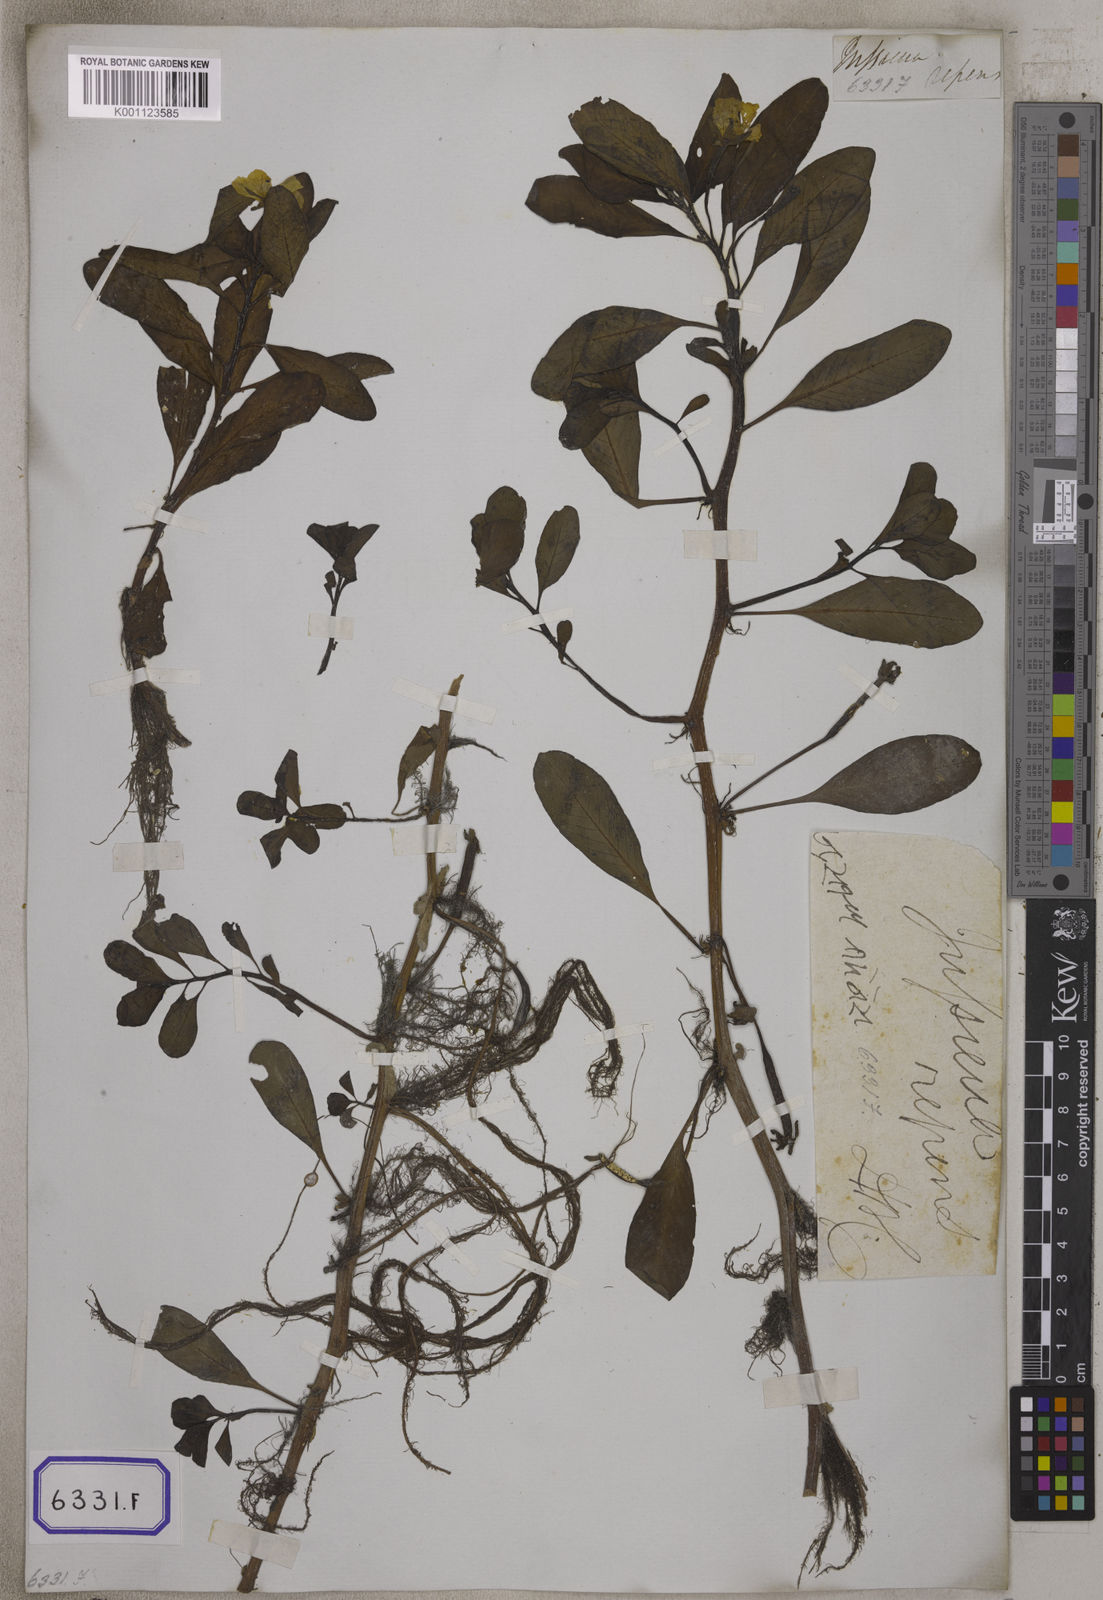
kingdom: Plantae
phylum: Tracheophyta
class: Magnoliopsida
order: Myrtales
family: Onagraceae
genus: Ludwigia
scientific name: Ludwigia adscendens
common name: Creeping water primrose
